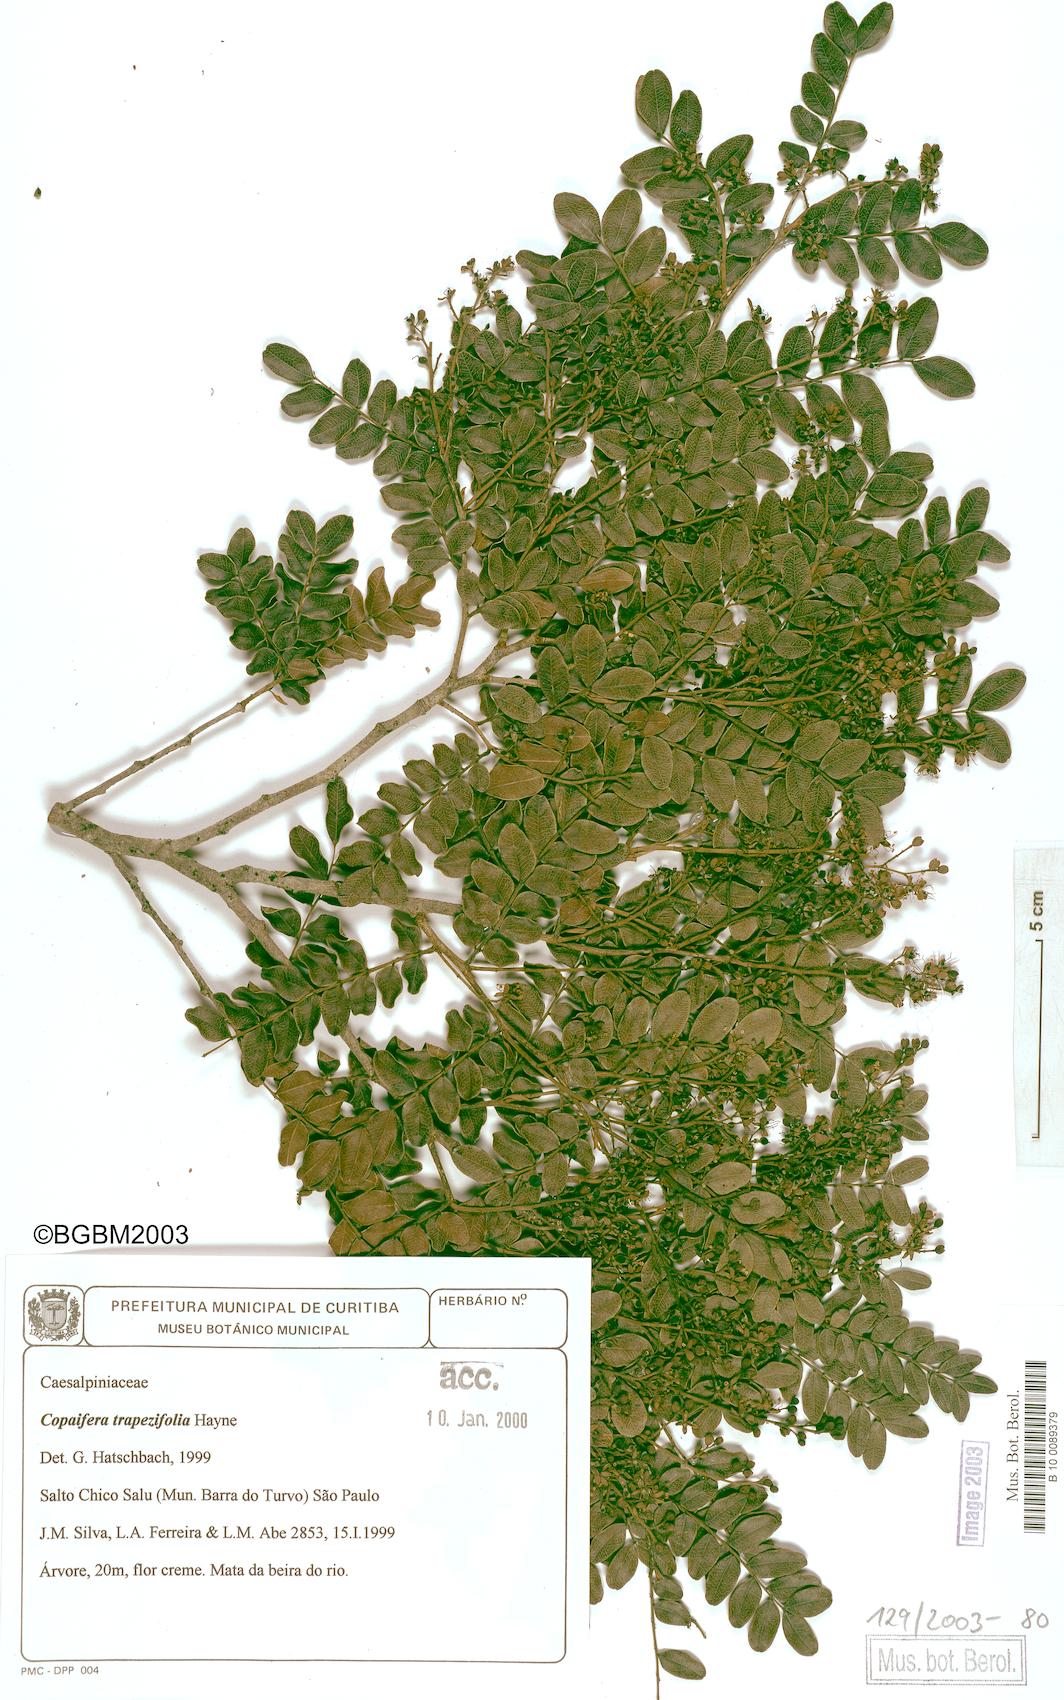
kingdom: Plantae
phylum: Tracheophyta
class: Magnoliopsida
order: Fabales
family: Fabaceae
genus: Copaifera
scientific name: Copaifera trapezifolia
